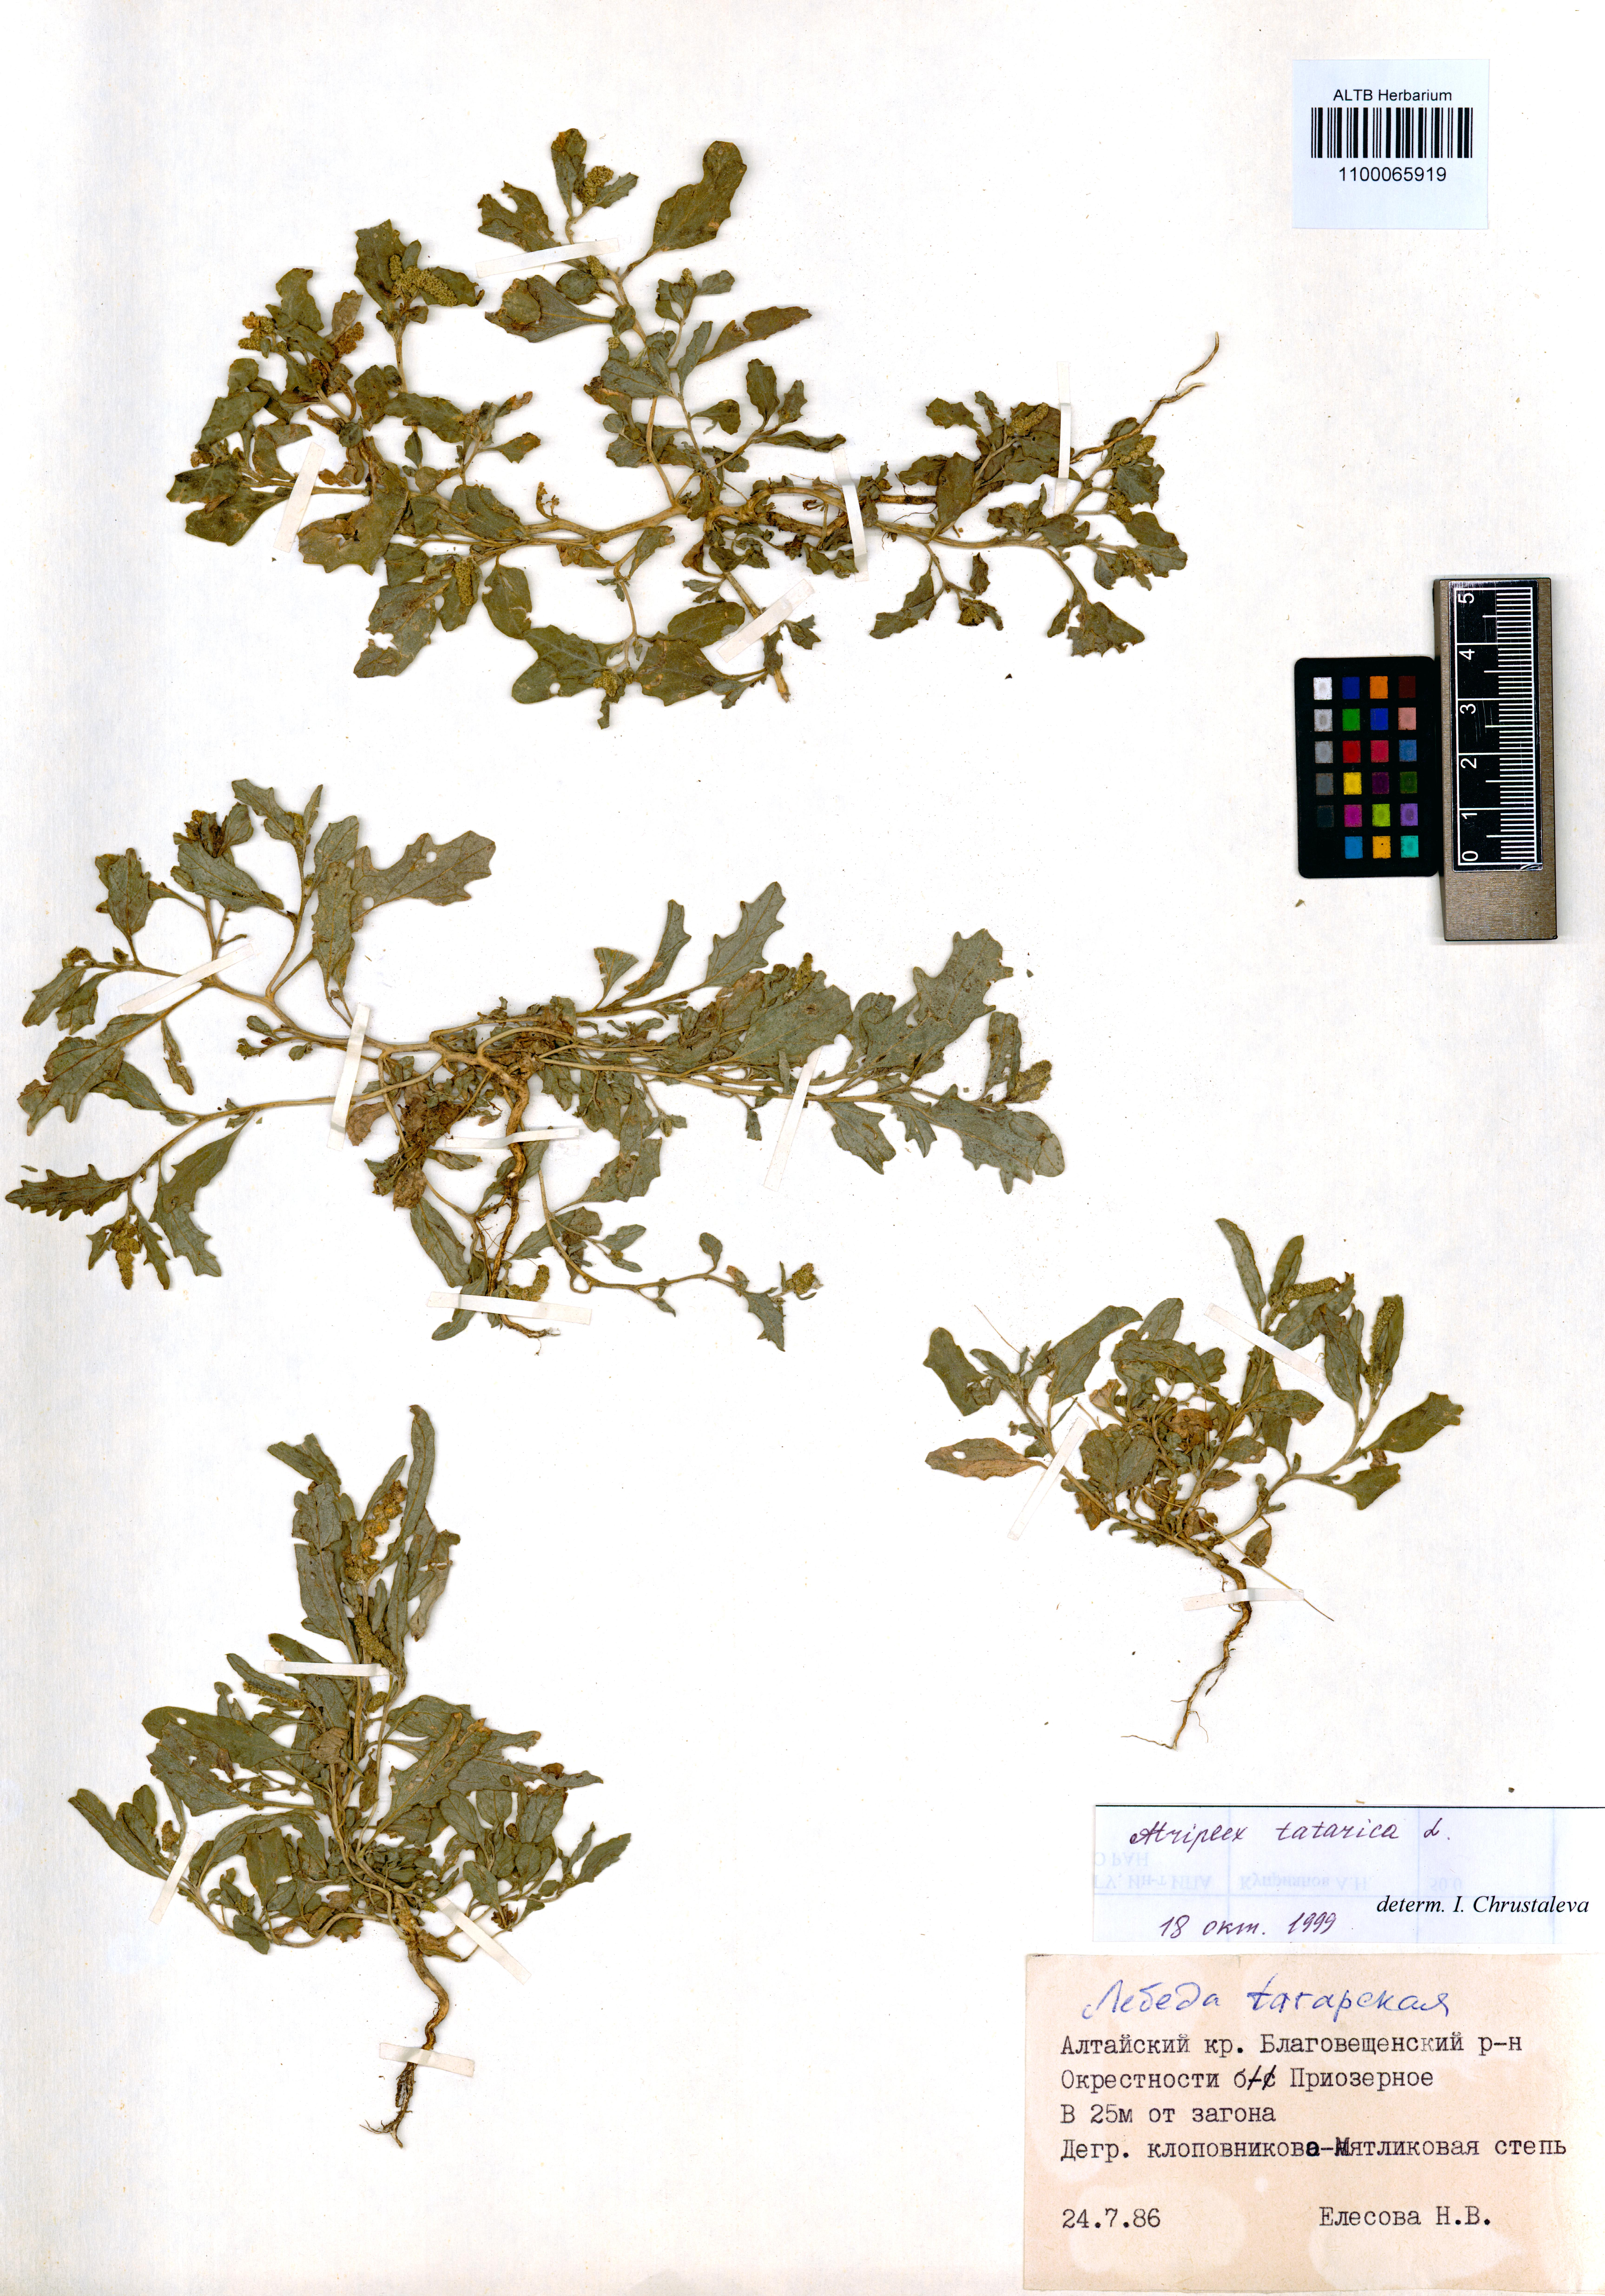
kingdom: Plantae
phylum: Tracheophyta
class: Magnoliopsida
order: Caryophyllales
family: Amaranthaceae
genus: Atriplex
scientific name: Atriplex tatarica
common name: Tatarian orache
